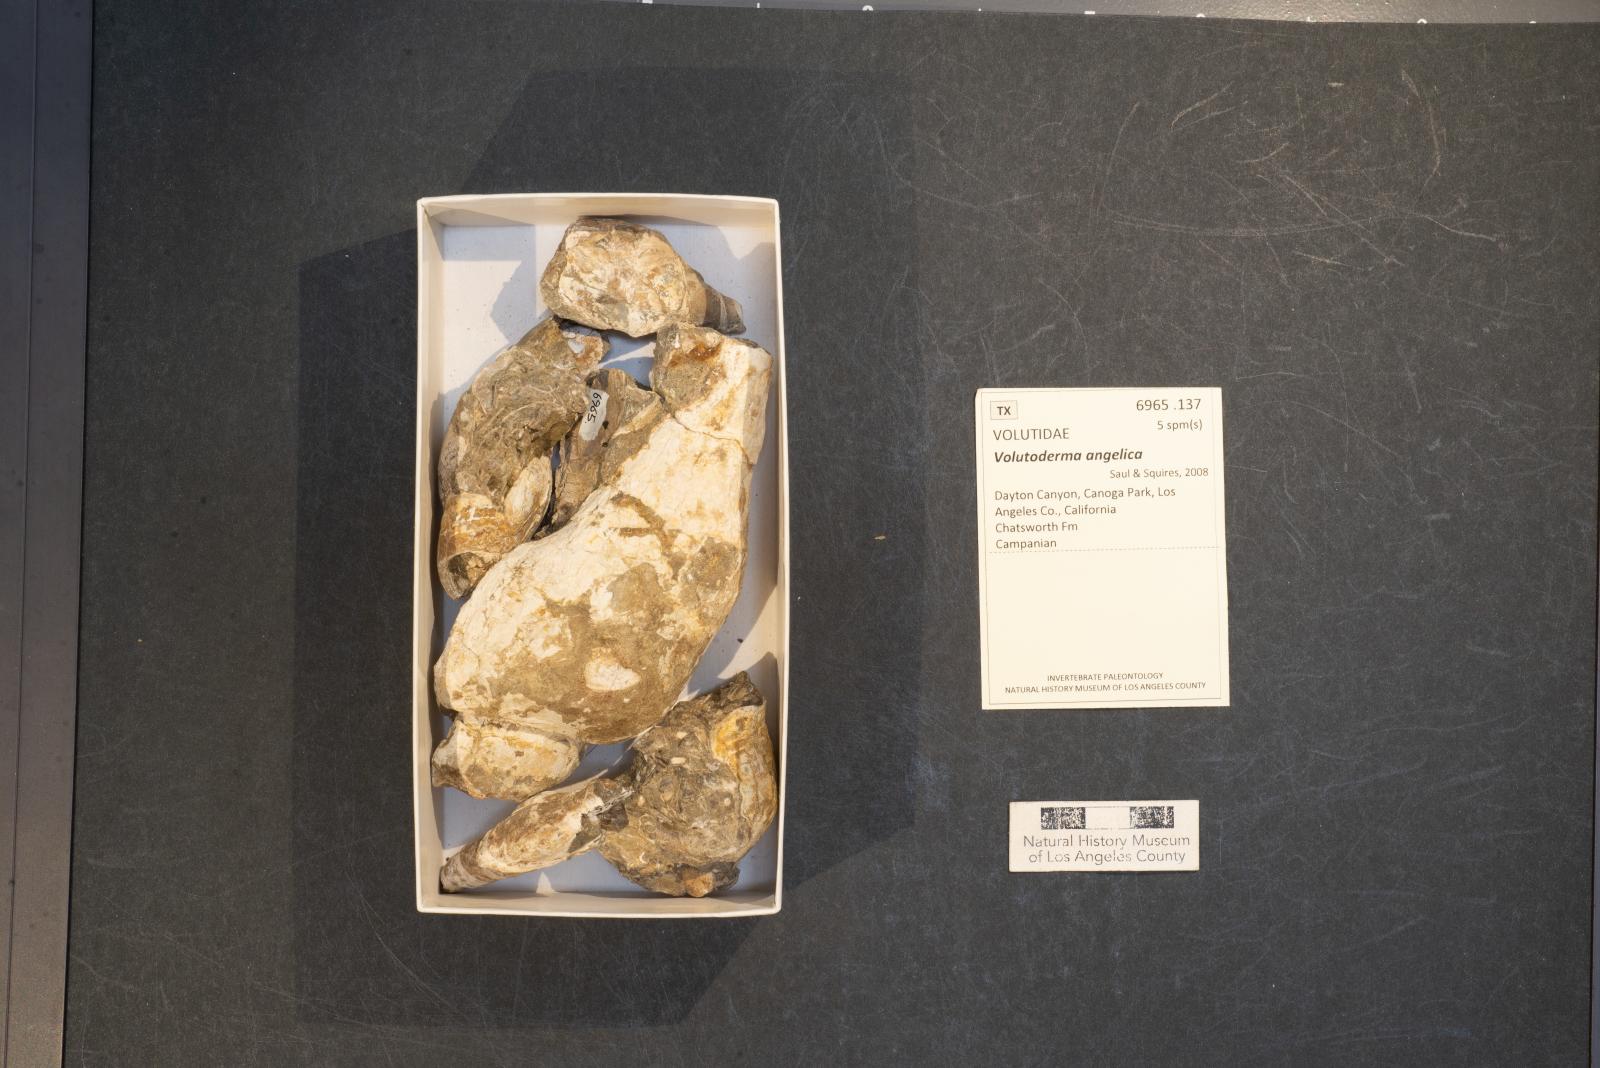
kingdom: Animalia
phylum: Mollusca
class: Gastropoda
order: Neogastropoda
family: Pholidotomidae
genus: Volutoderma
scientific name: Volutoderma angelica
